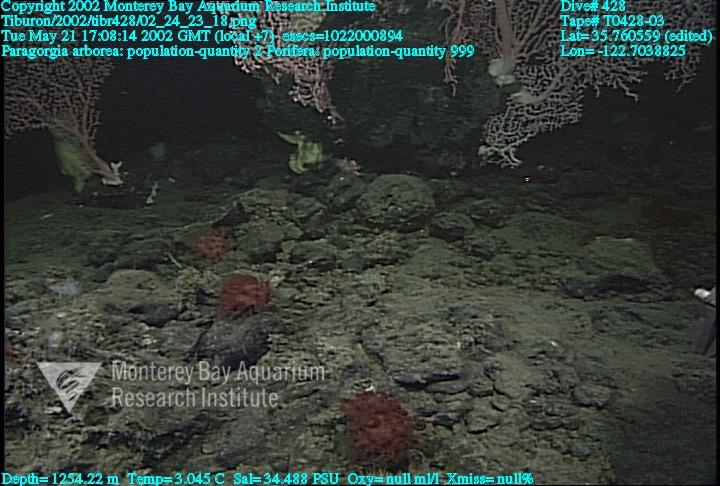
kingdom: Animalia
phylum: Porifera
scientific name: Porifera
